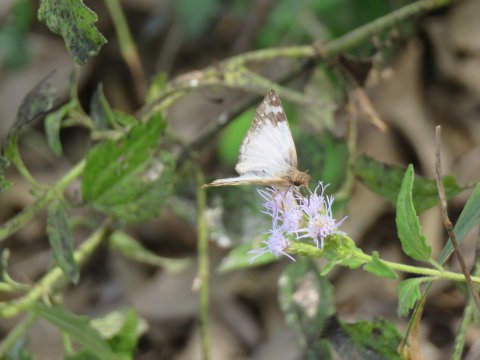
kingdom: Animalia
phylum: Arthropoda
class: Insecta
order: Lepidoptera
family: Hesperiidae
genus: Heliopetes
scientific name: Heliopetes laviana
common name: Laviana White-Skipper
